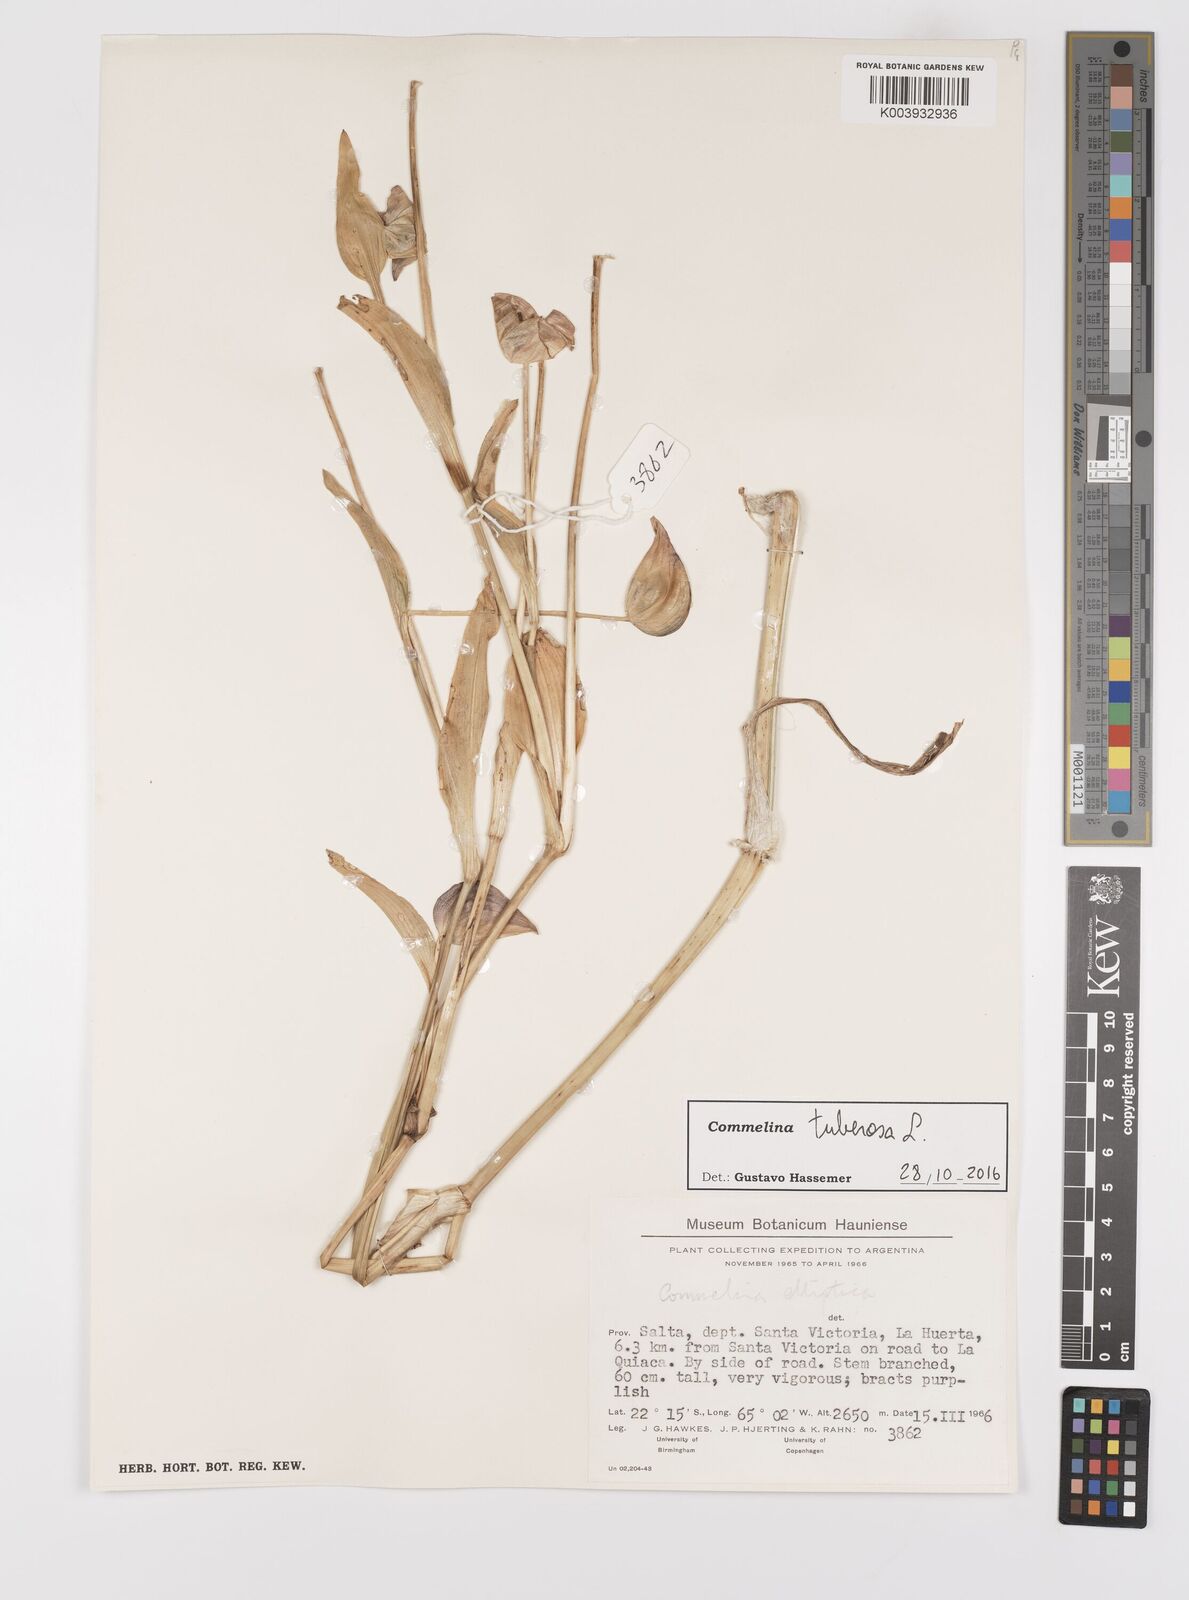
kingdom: Plantae
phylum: Tracheophyta
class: Liliopsida
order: Commelinales
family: Commelinaceae
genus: Commelina
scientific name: Commelina tuberosa
